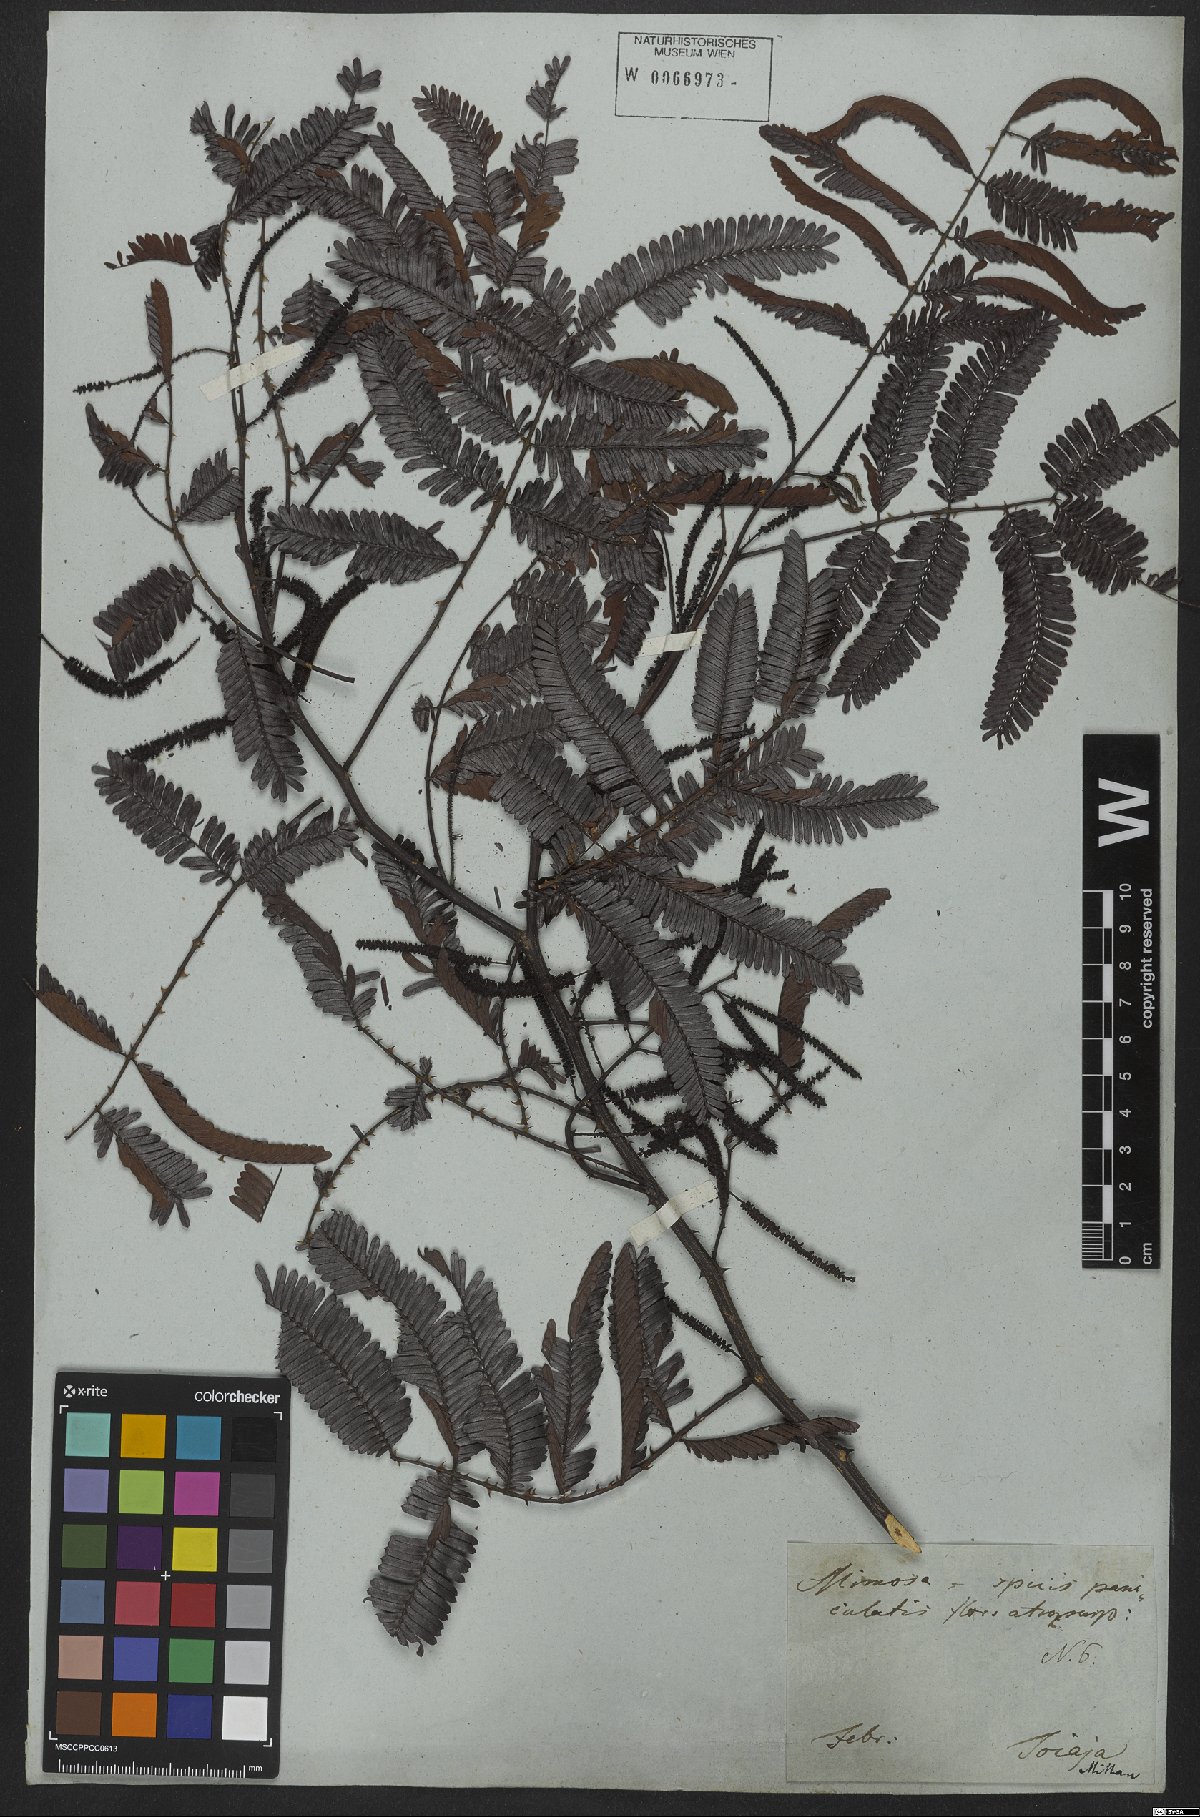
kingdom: Plantae
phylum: Tracheophyta
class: Magnoliopsida
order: Fabales
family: Fabaceae
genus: Piptadenia
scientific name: Piptadenia trisperma
